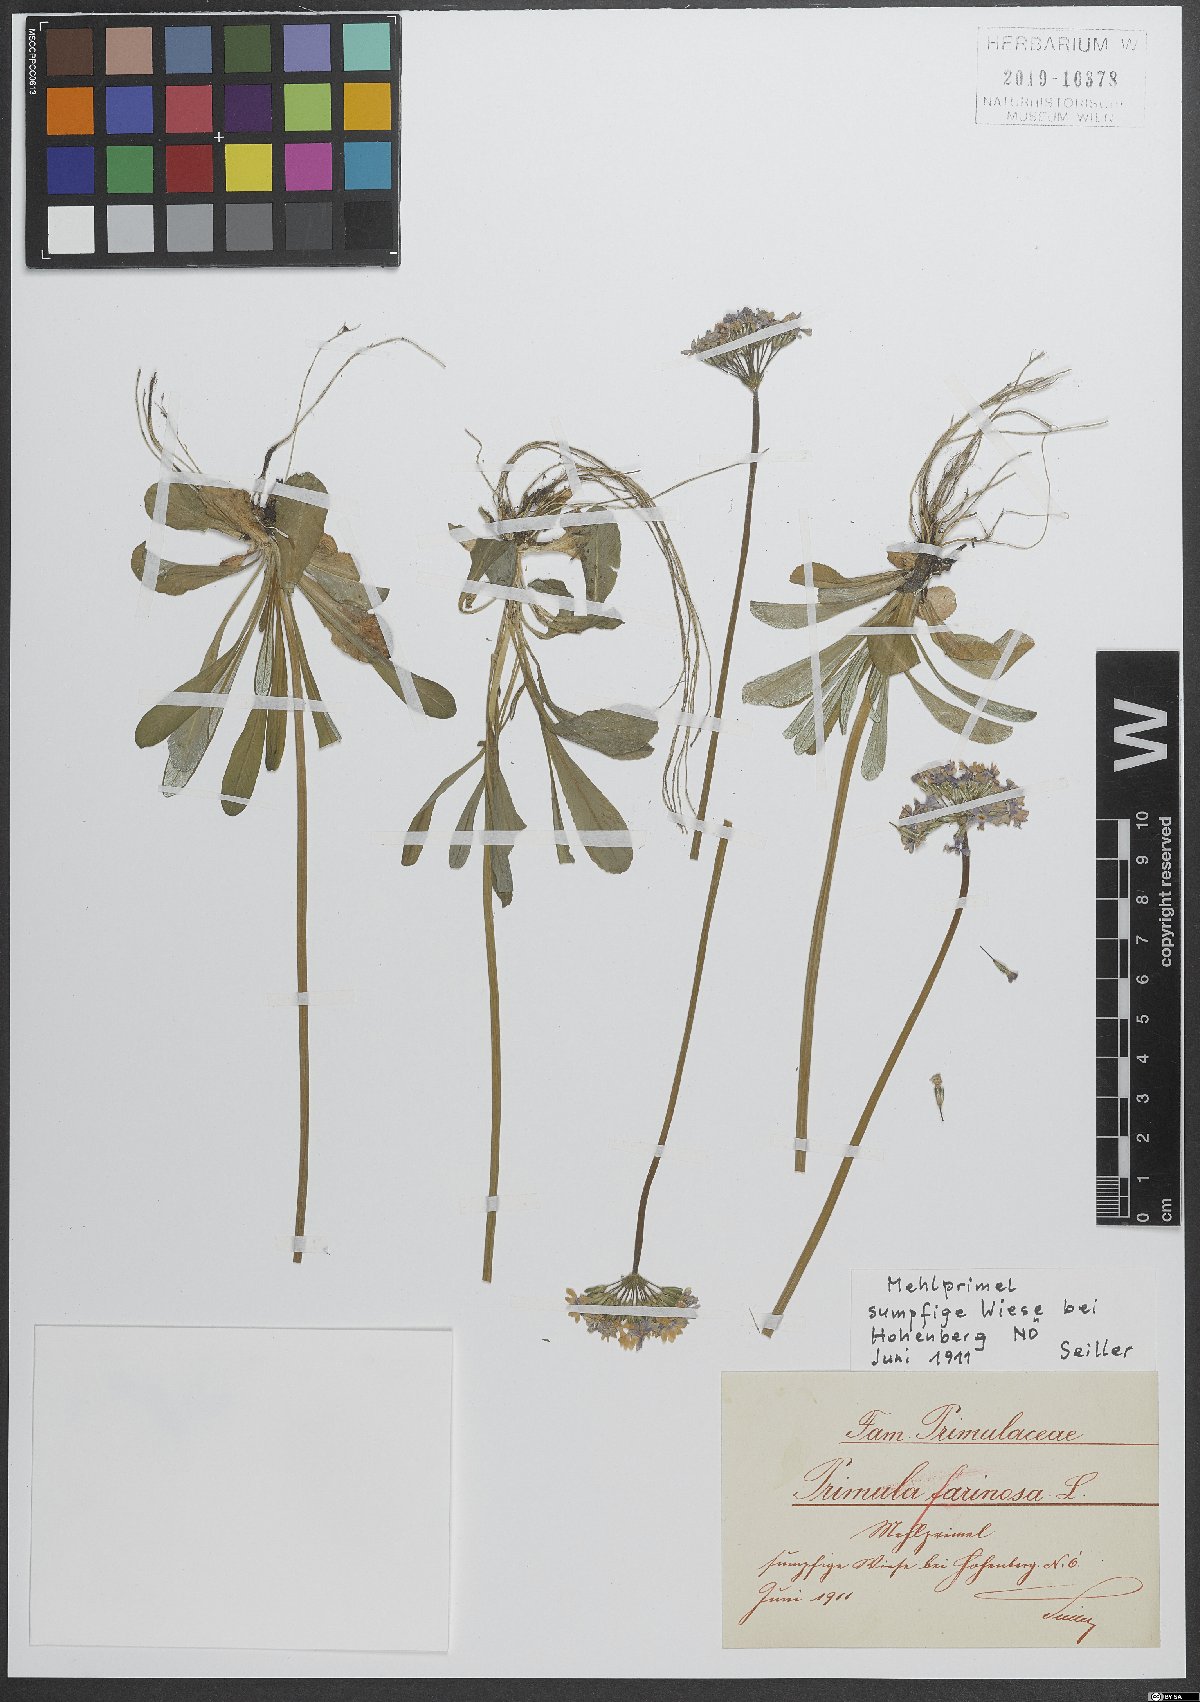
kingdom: Plantae
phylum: Tracheophyta
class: Magnoliopsida
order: Ericales
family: Primulaceae
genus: Primula
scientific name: Primula farinosa
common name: Bird's-eye primrose
